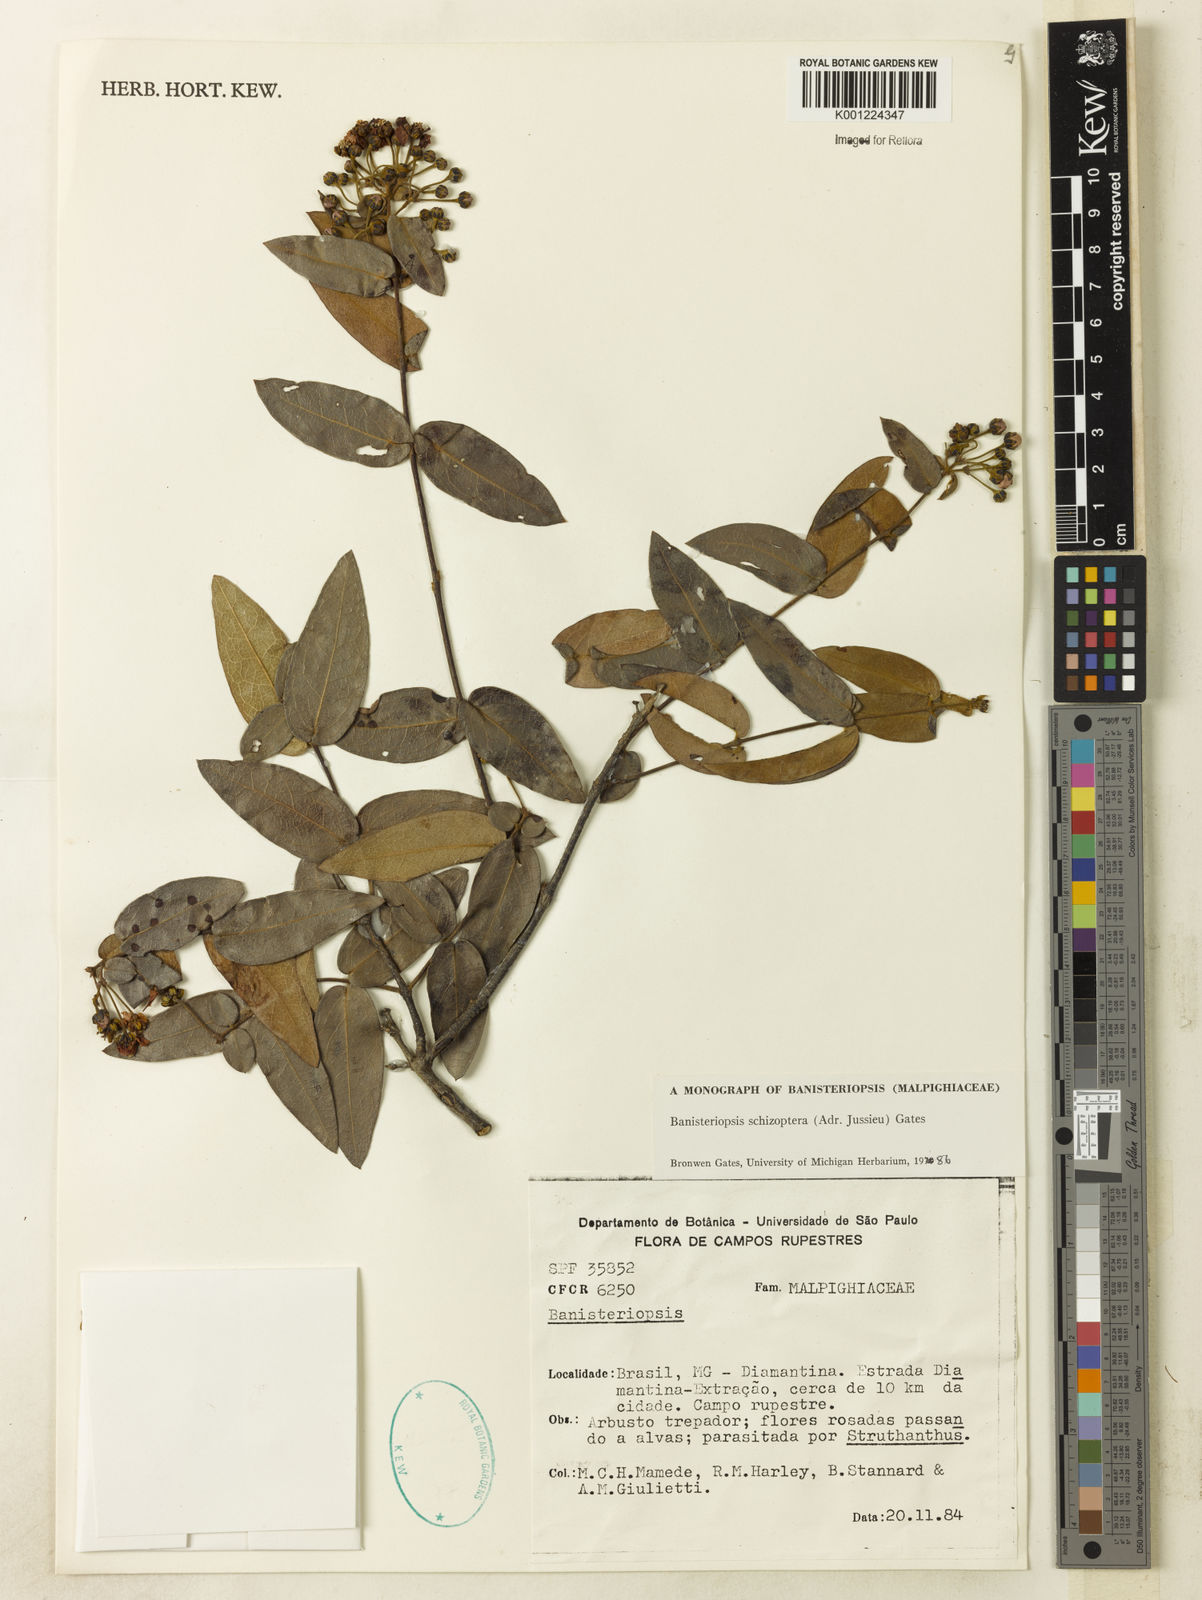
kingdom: Plantae
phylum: Tracheophyta
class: Magnoliopsida
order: Malpighiales
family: Malpighiaceae
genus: Banisteriopsis
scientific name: Banisteriopsis schizoptera
